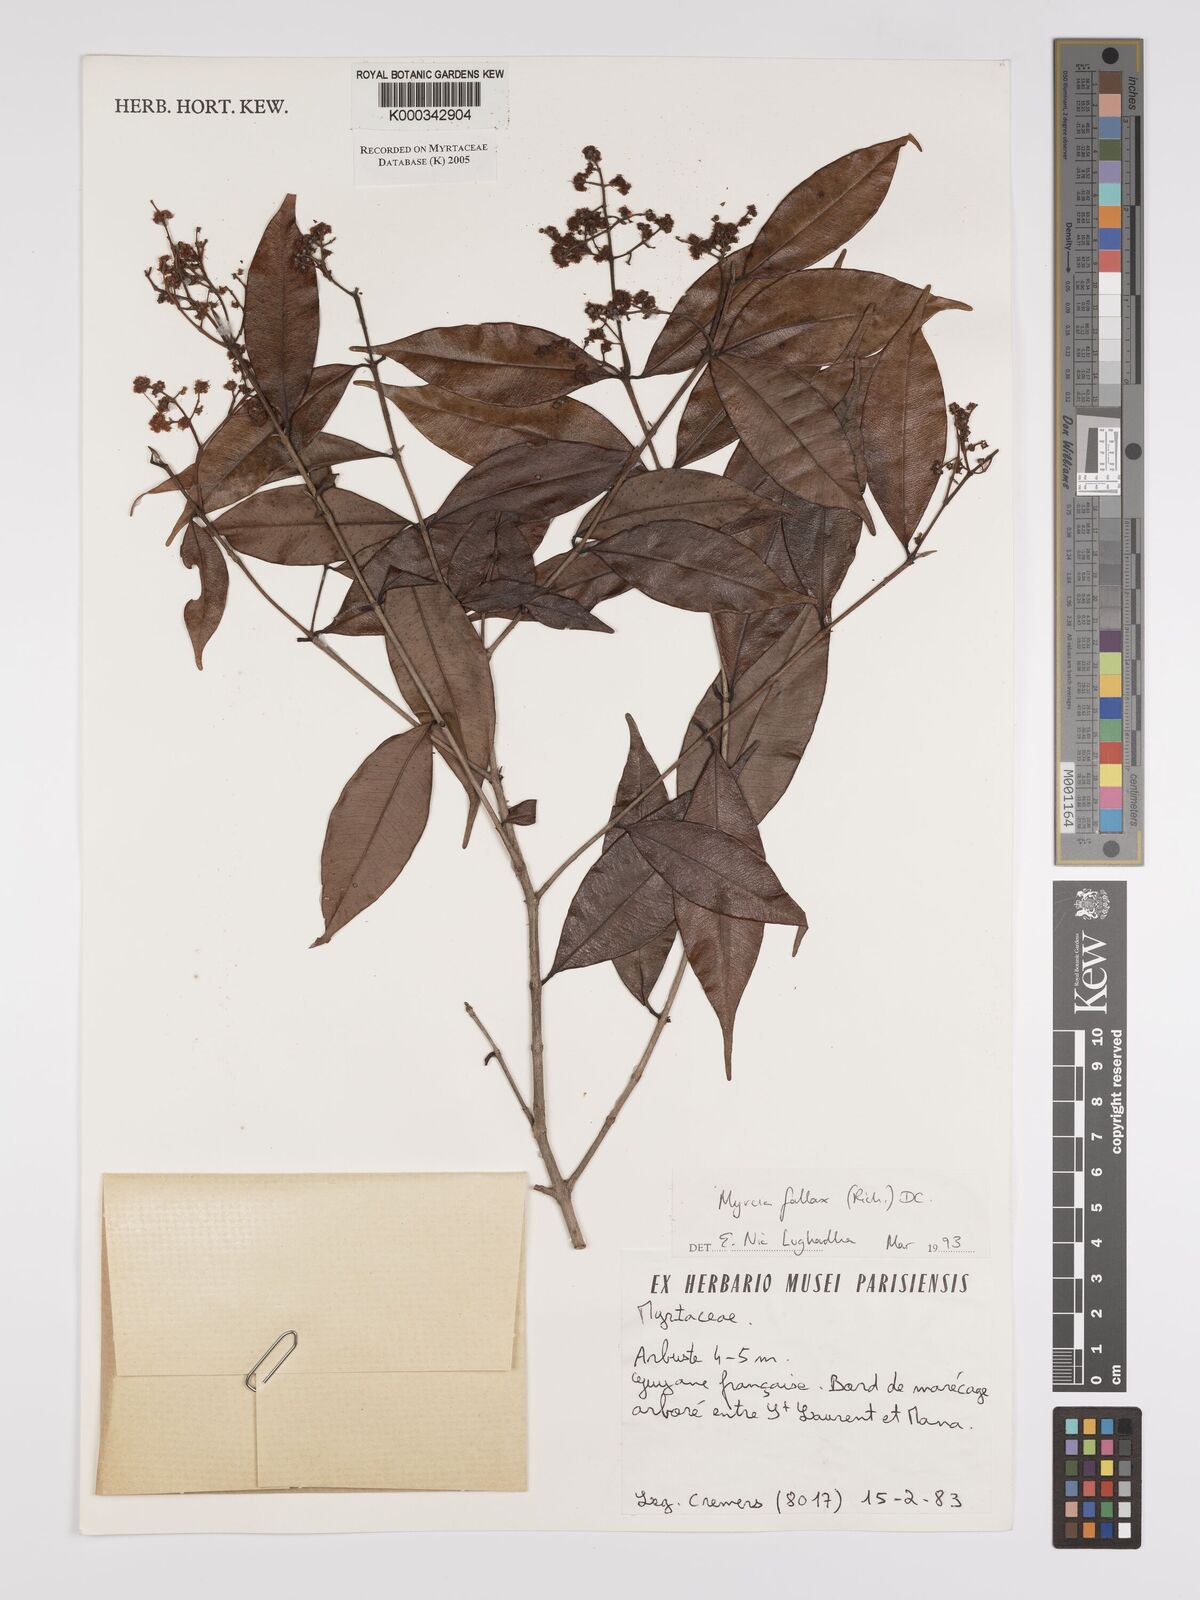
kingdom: Plantae
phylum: Tracheophyta
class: Magnoliopsida
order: Myrtales
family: Myrtaceae
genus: Myrcia
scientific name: Myrcia splendens
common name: Surinam cherry
